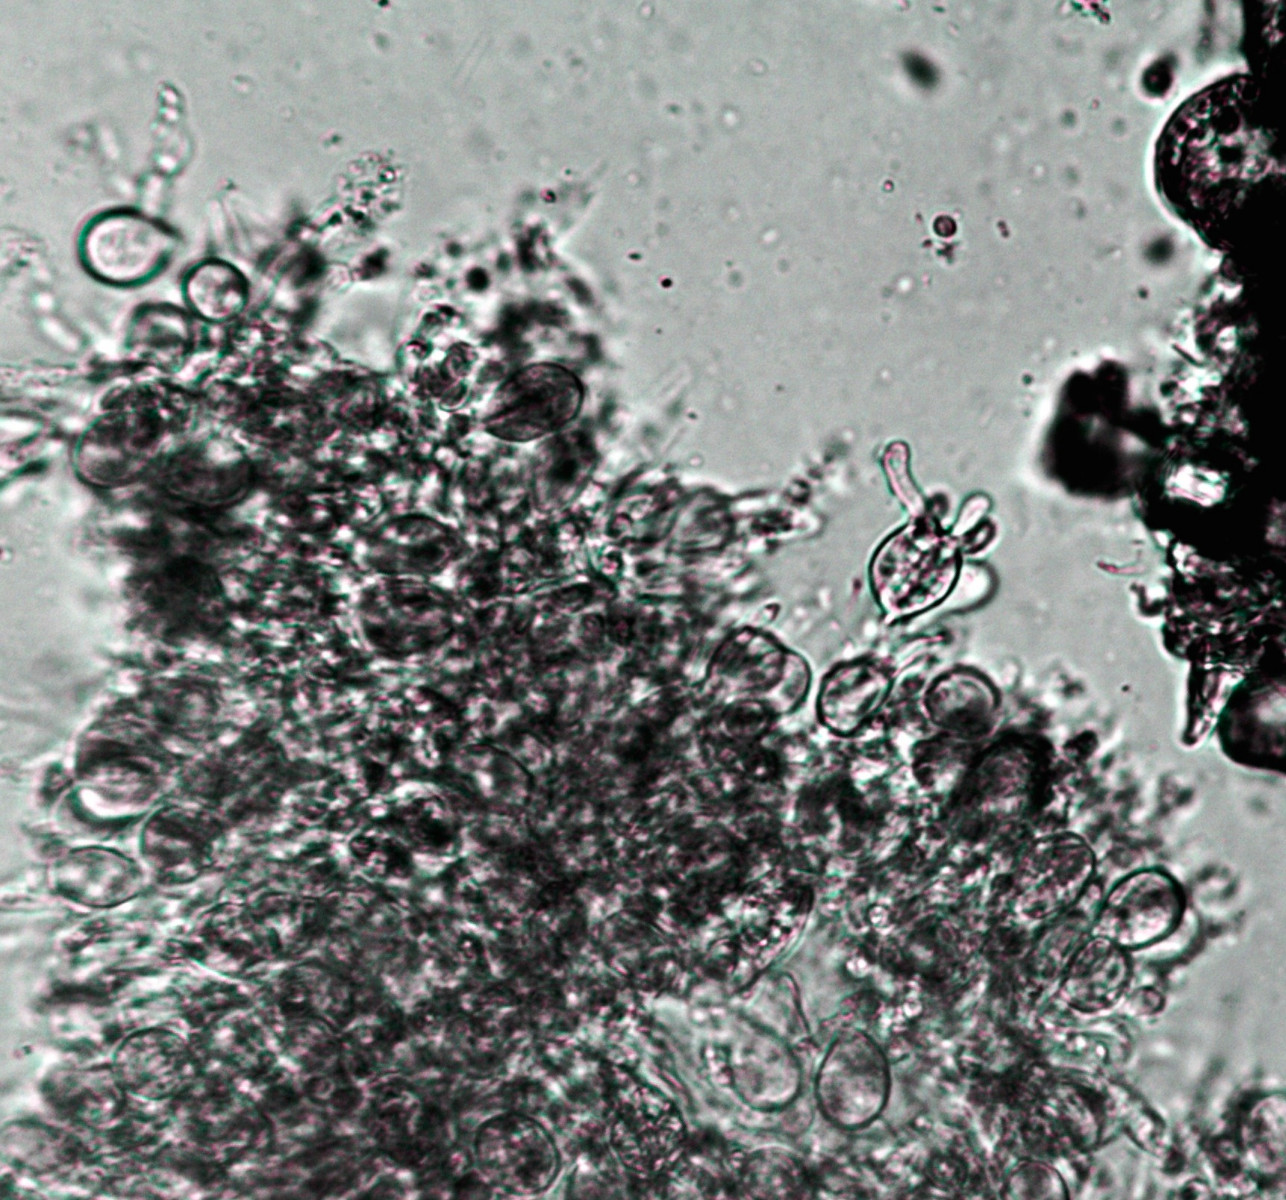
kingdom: Fungi
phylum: Basidiomycota
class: Tremellomycetes
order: Tremellales
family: Exidiaceae
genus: Exidiopsis
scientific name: Exidiopsis effusa
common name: smuk bævrehinde
